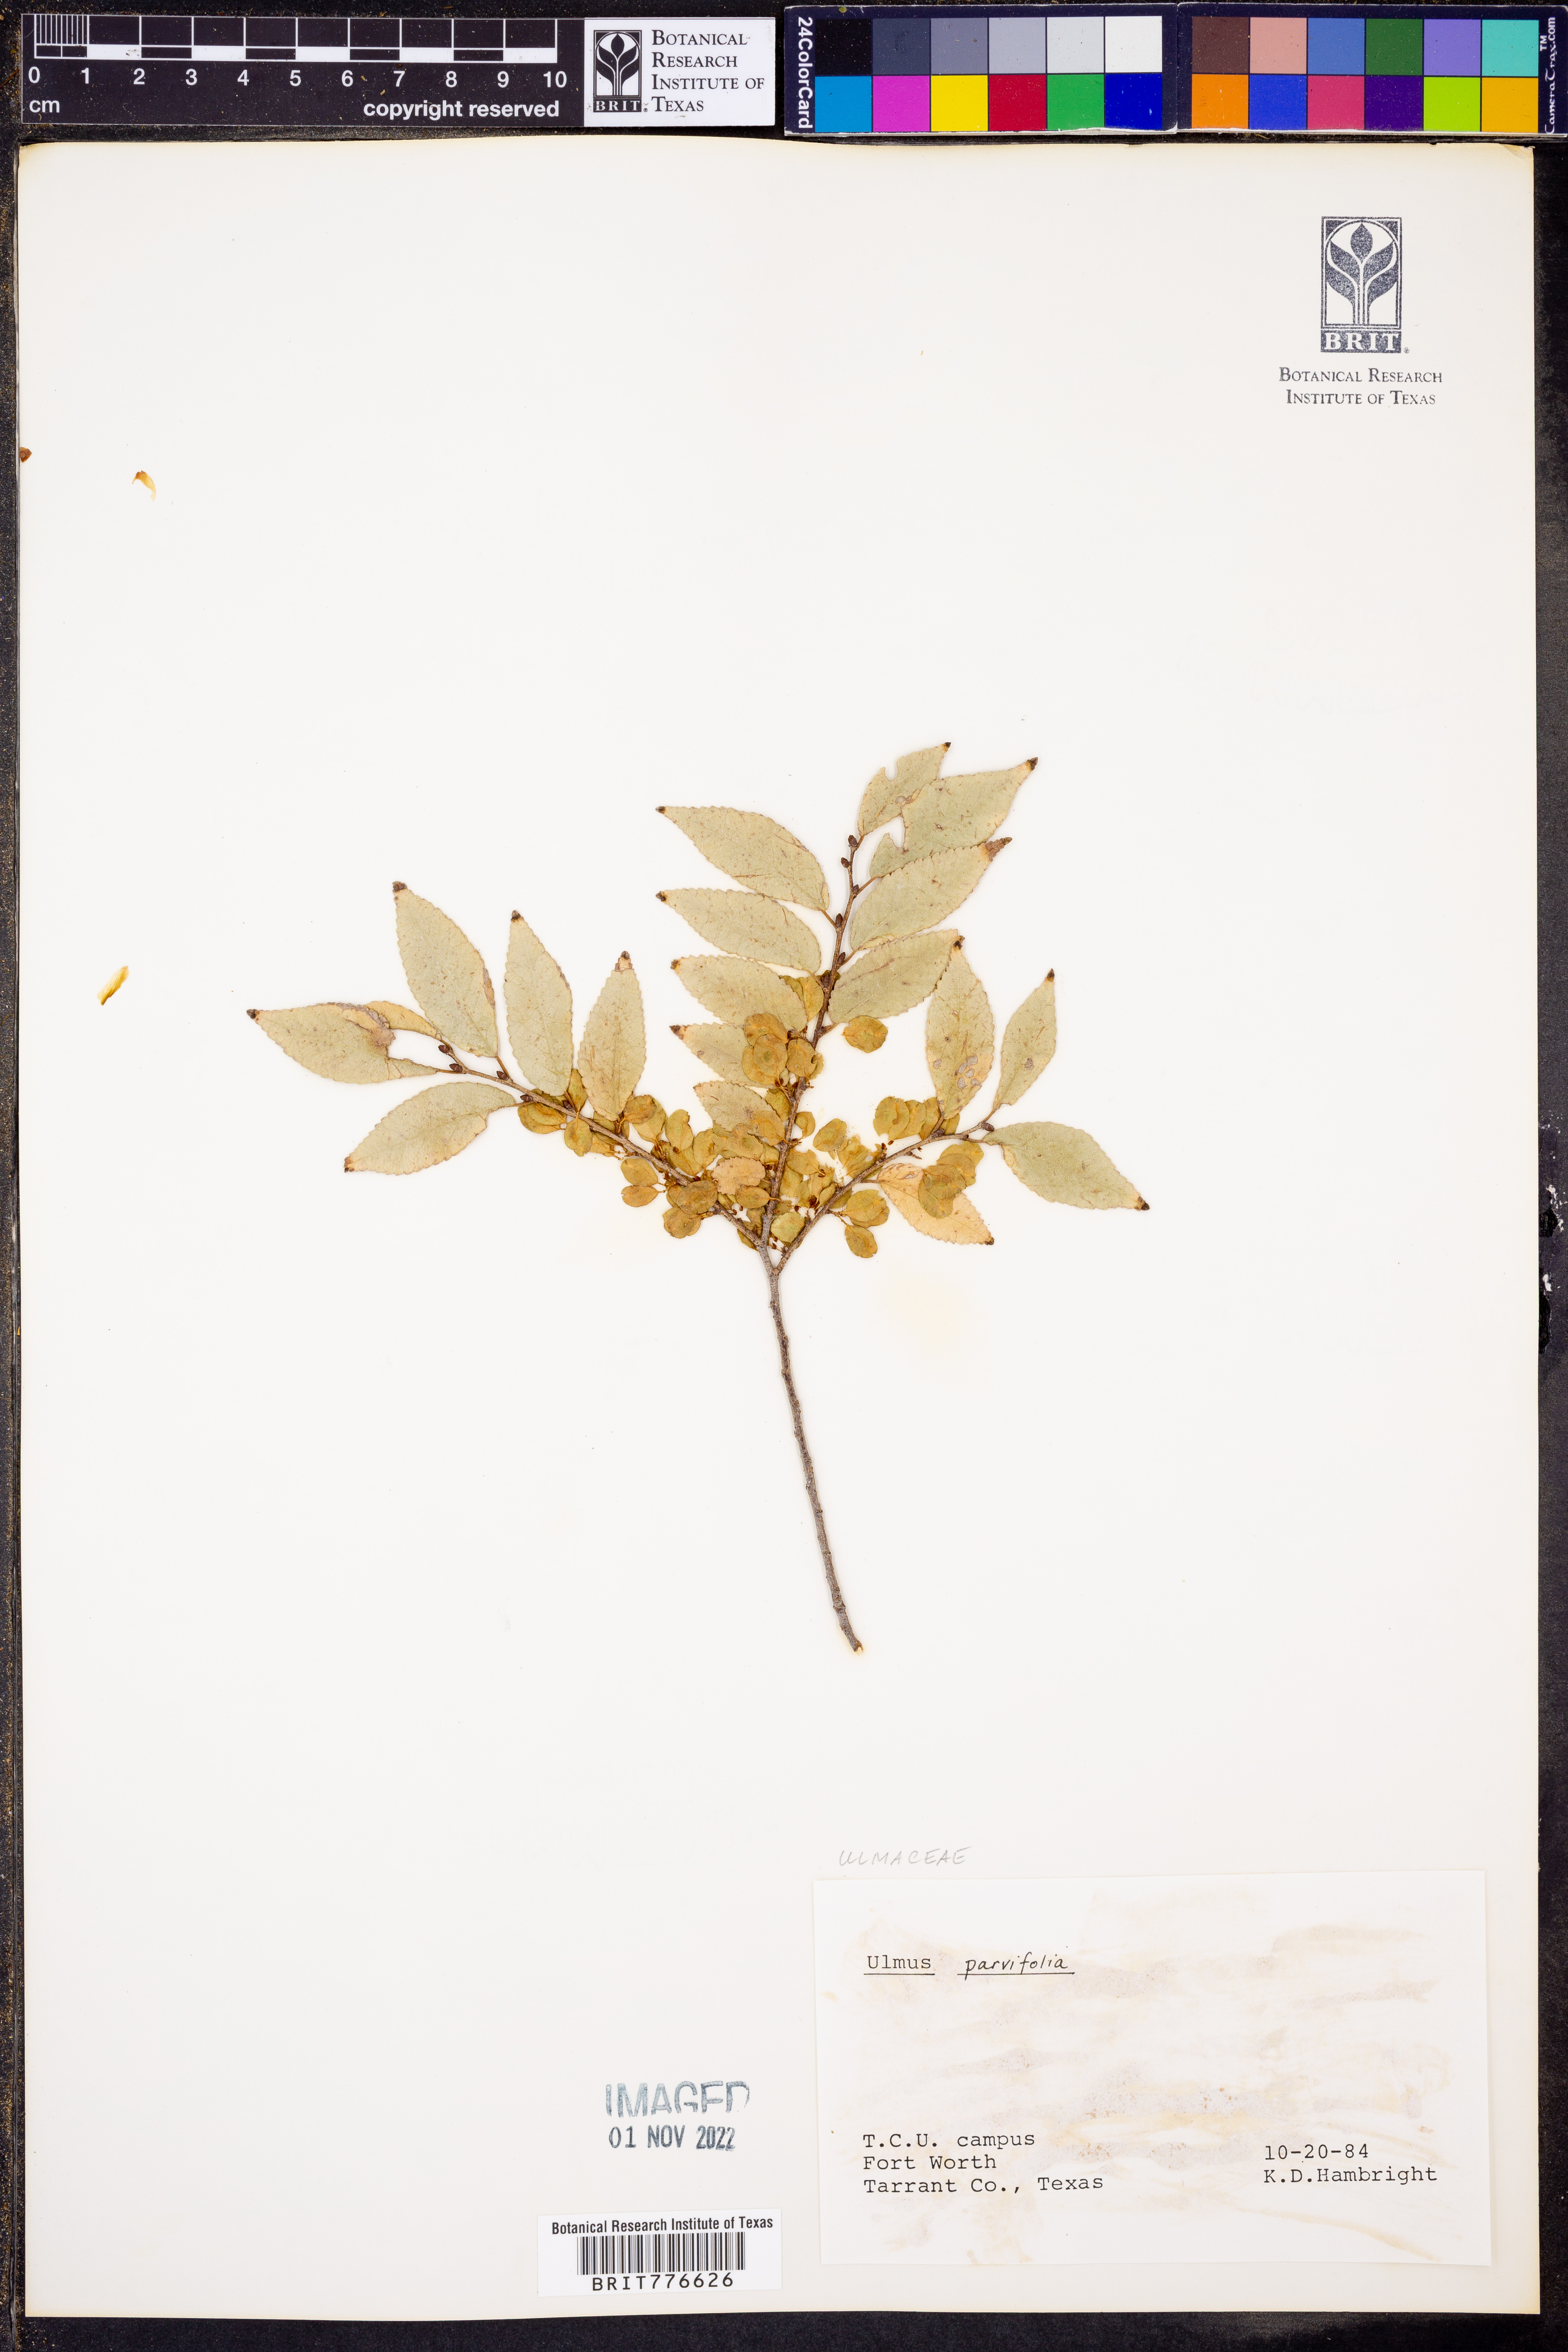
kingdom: Plantae
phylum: Tracheophyta
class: Magnoliopsida
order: Rosales
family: Ulmaceae
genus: Ulmus
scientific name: Ulmus parvifolia
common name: Chinese elm
